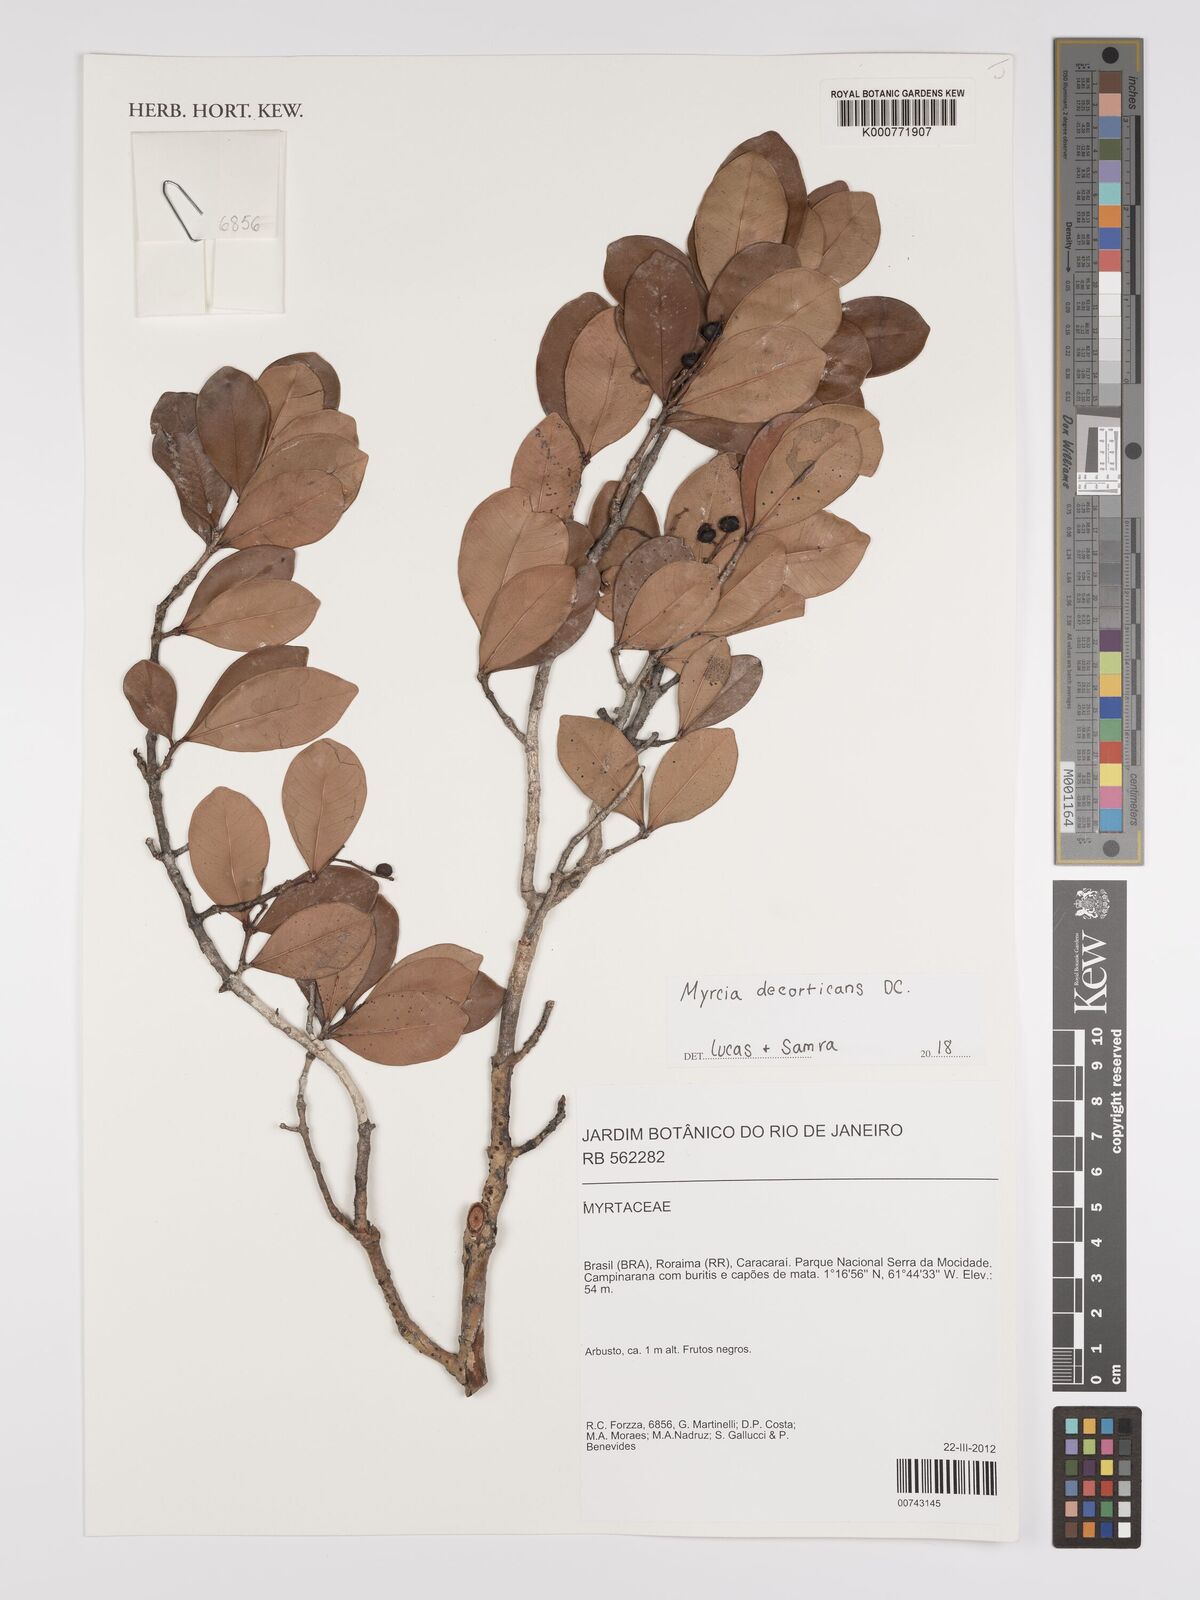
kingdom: Plantae
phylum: Tracheophyta
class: Magnoliopsida
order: Myrtales
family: Myrtaceae
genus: Myrcia
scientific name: Myrcia decorticans
